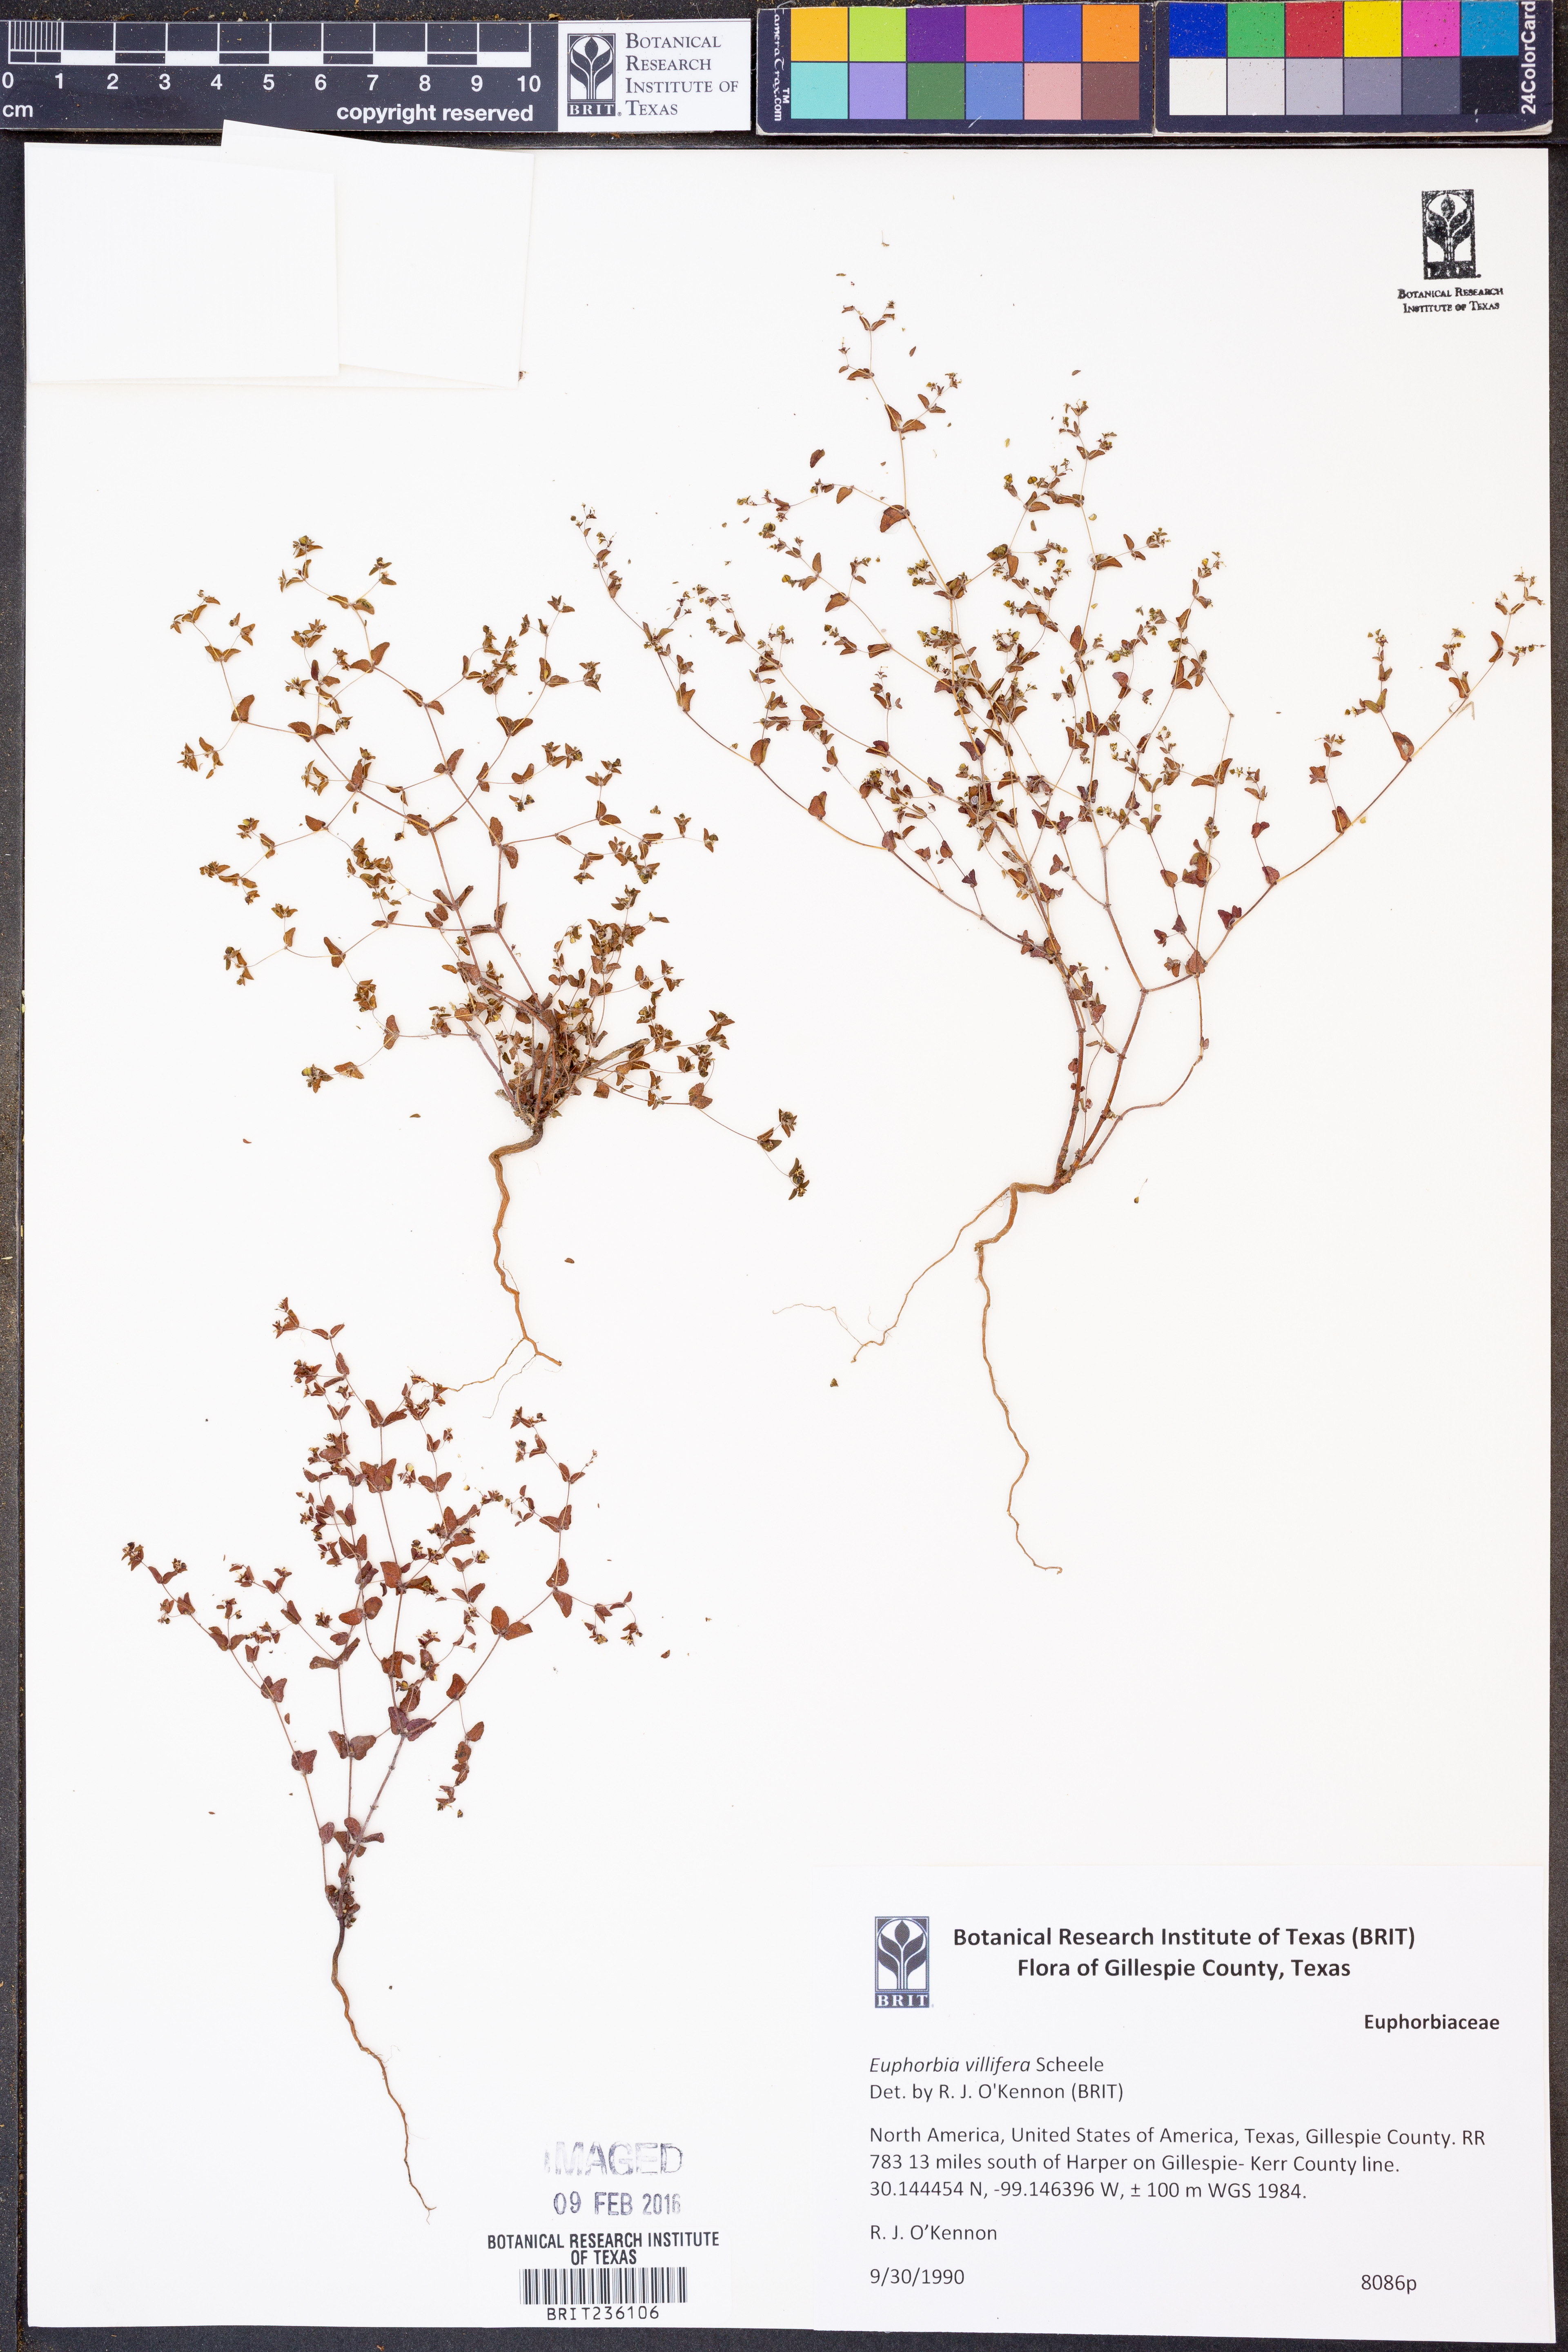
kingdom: Plantae
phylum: Tracheophyta
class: Magnoliopsida
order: Malpighiales
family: Euphorbiaceae
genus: Euphorbia
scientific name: Euphorbia micractina
